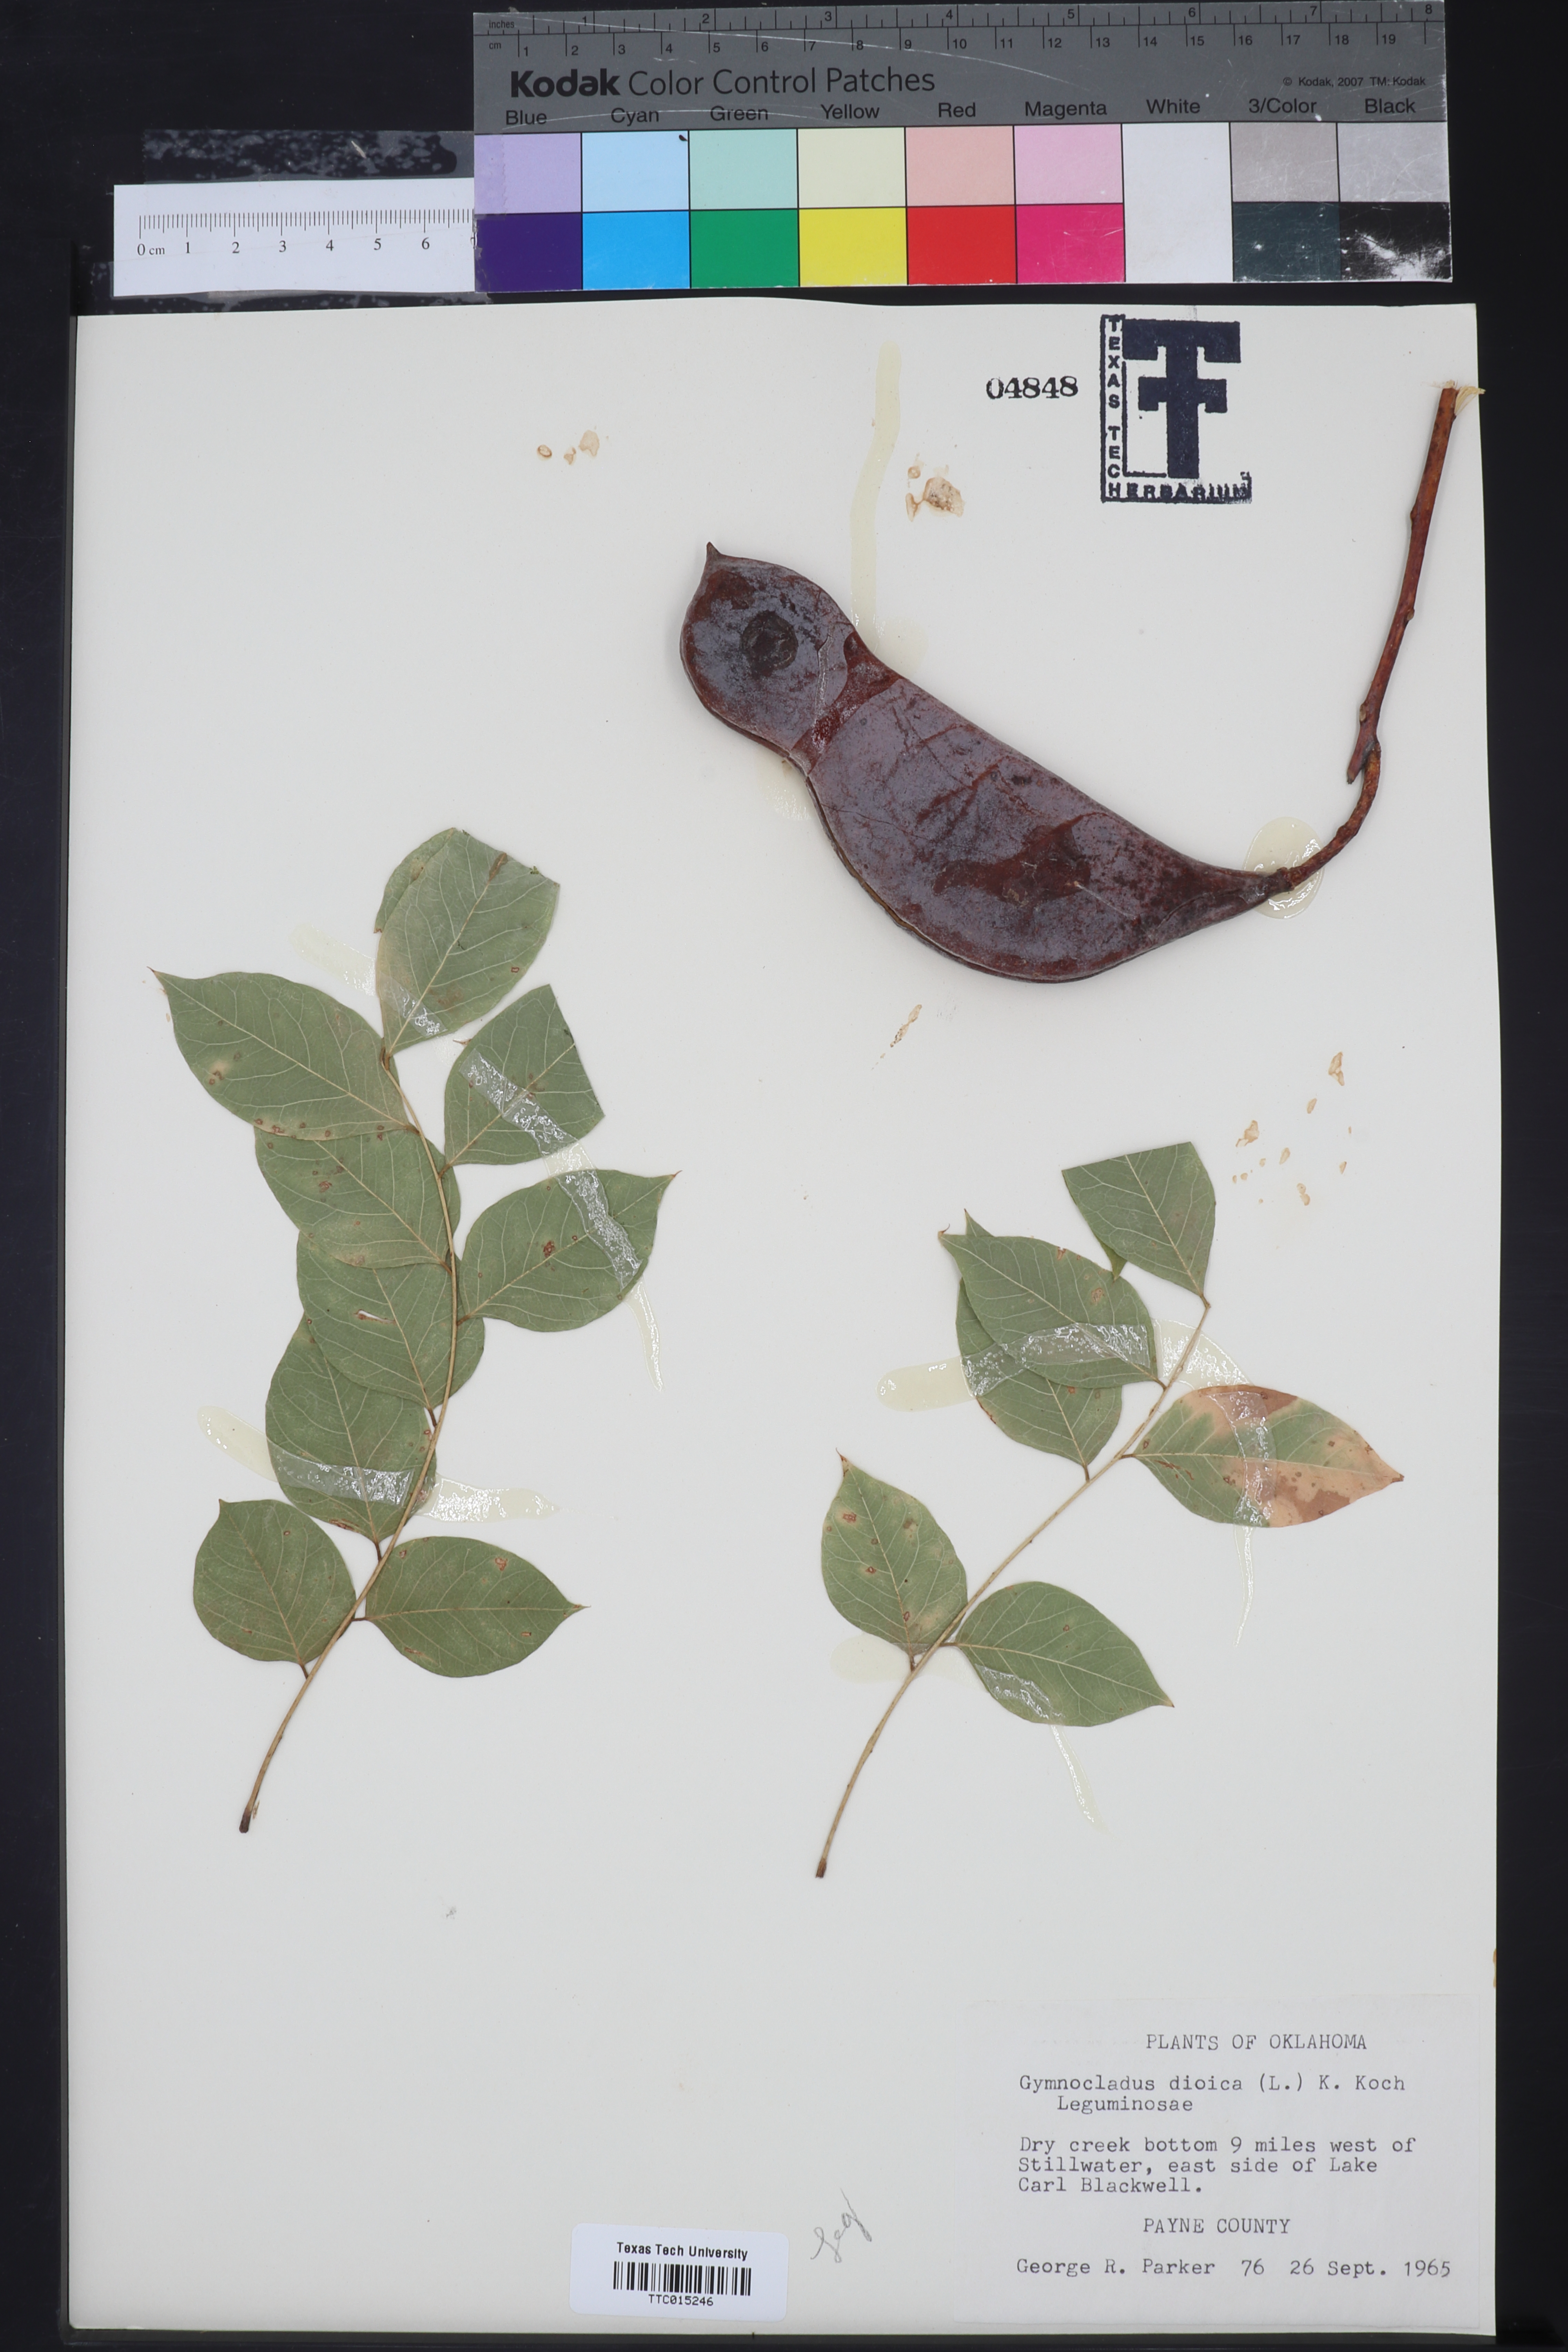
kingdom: Plantae
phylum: Tracheophyta
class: Magnoliopsida
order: Fabales
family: Fabaceae
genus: Gymnocladus
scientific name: Gymnocladus dioicus
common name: Kentucky coffee-tree
